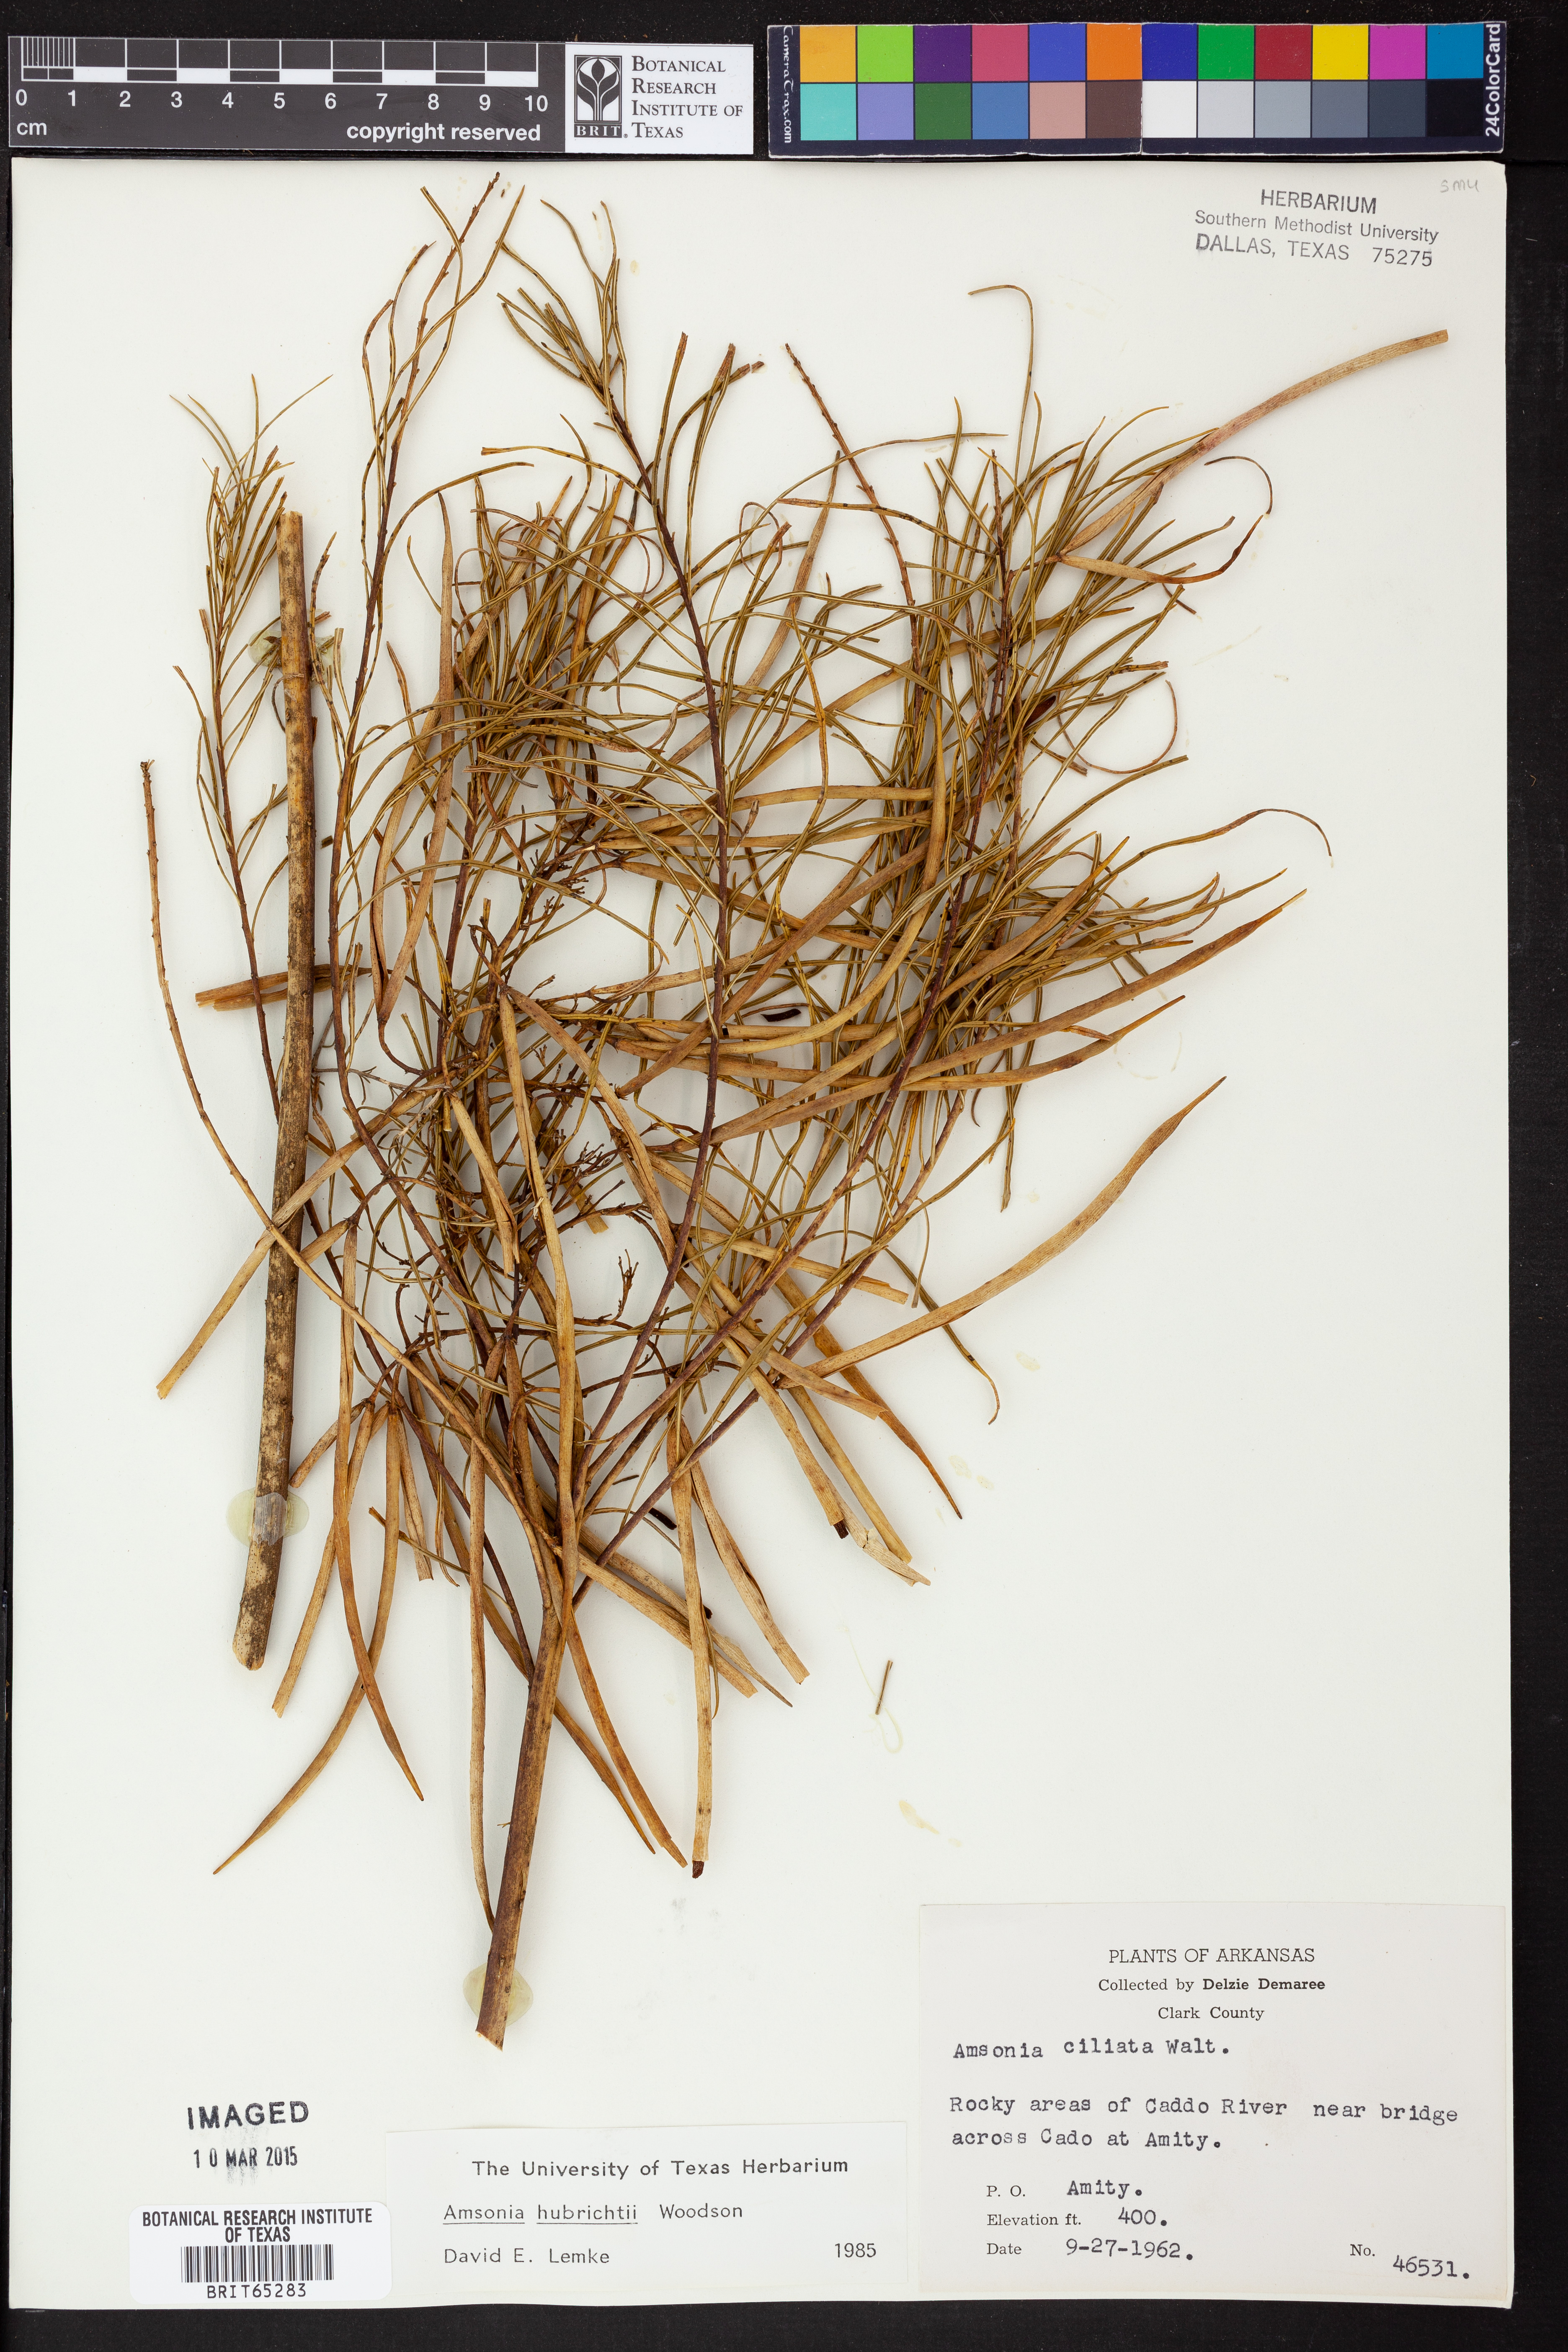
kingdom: Plantae
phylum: Tracheophyta
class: Magnoliopsida
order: Gentianales
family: Apocynaceae
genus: Amsonia
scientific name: Amsonia hubrichtii
